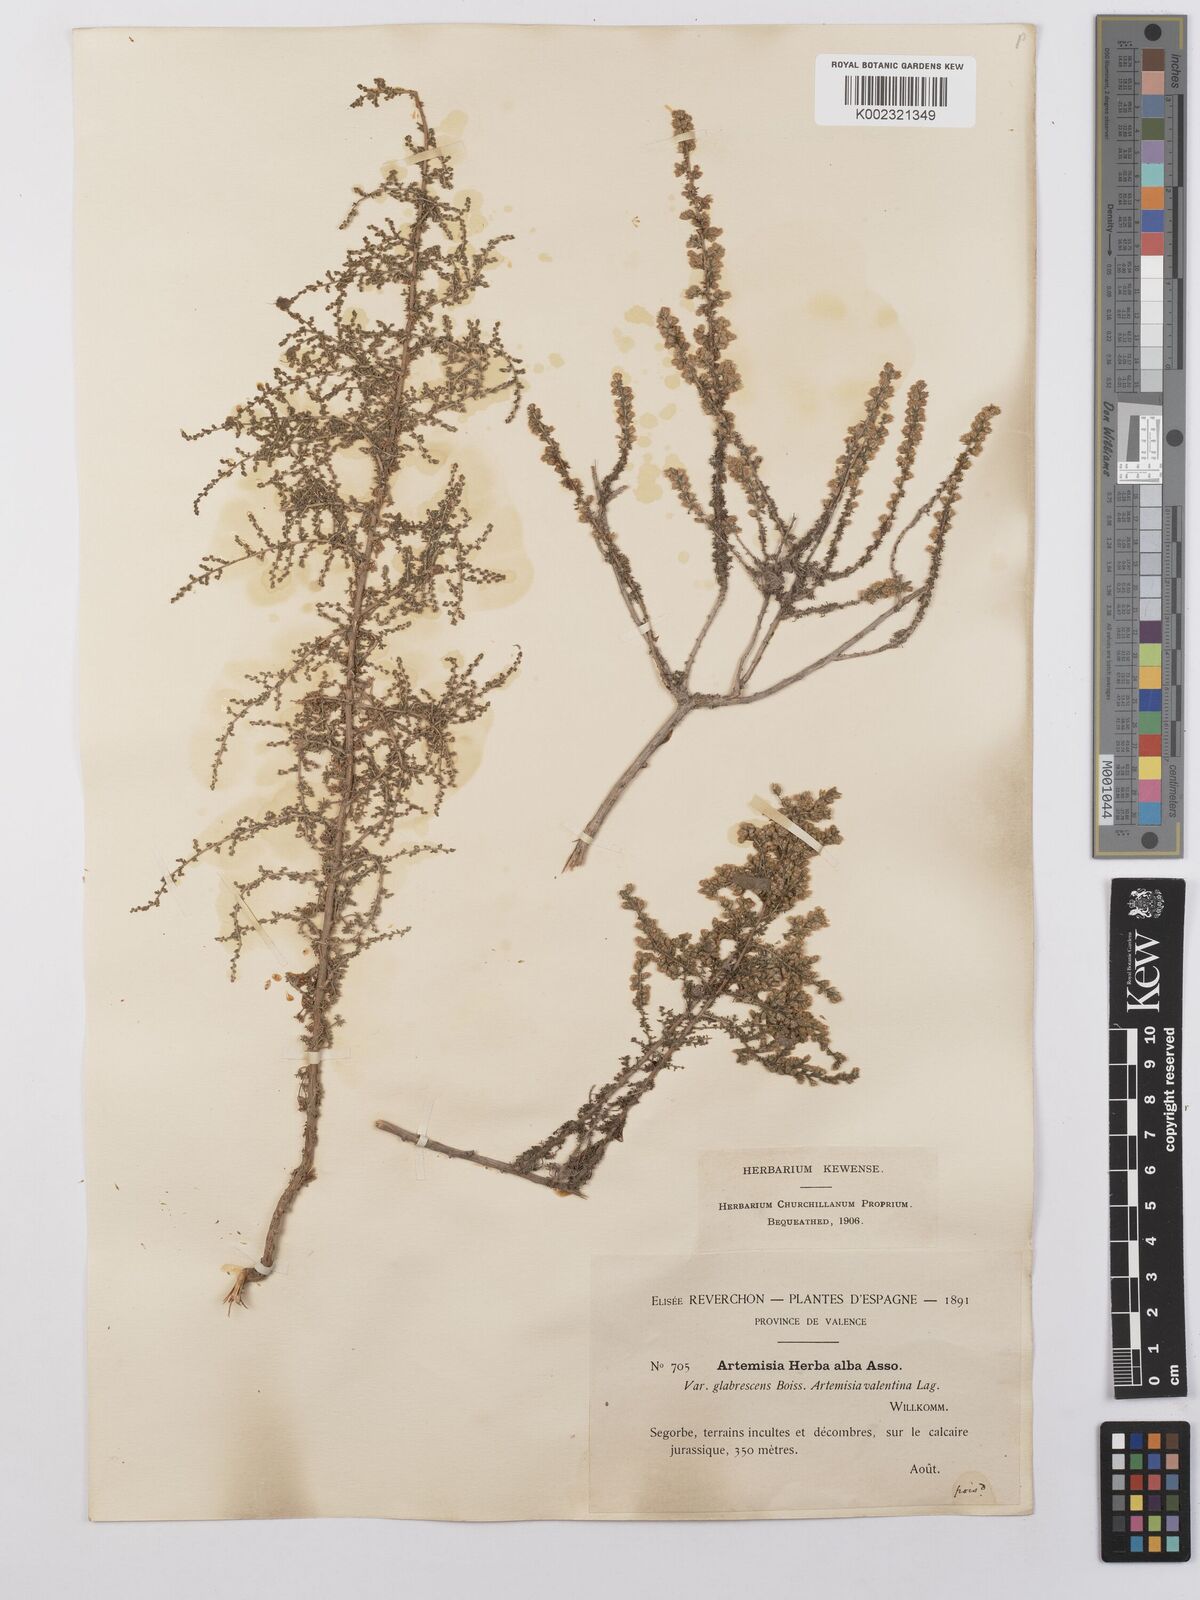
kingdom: Plantae
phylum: Tracheophyta
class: Magnoliopsida
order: Asterales
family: Asteraceae
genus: Artemisia
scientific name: Artemisia herba-alba
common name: White wormwood
